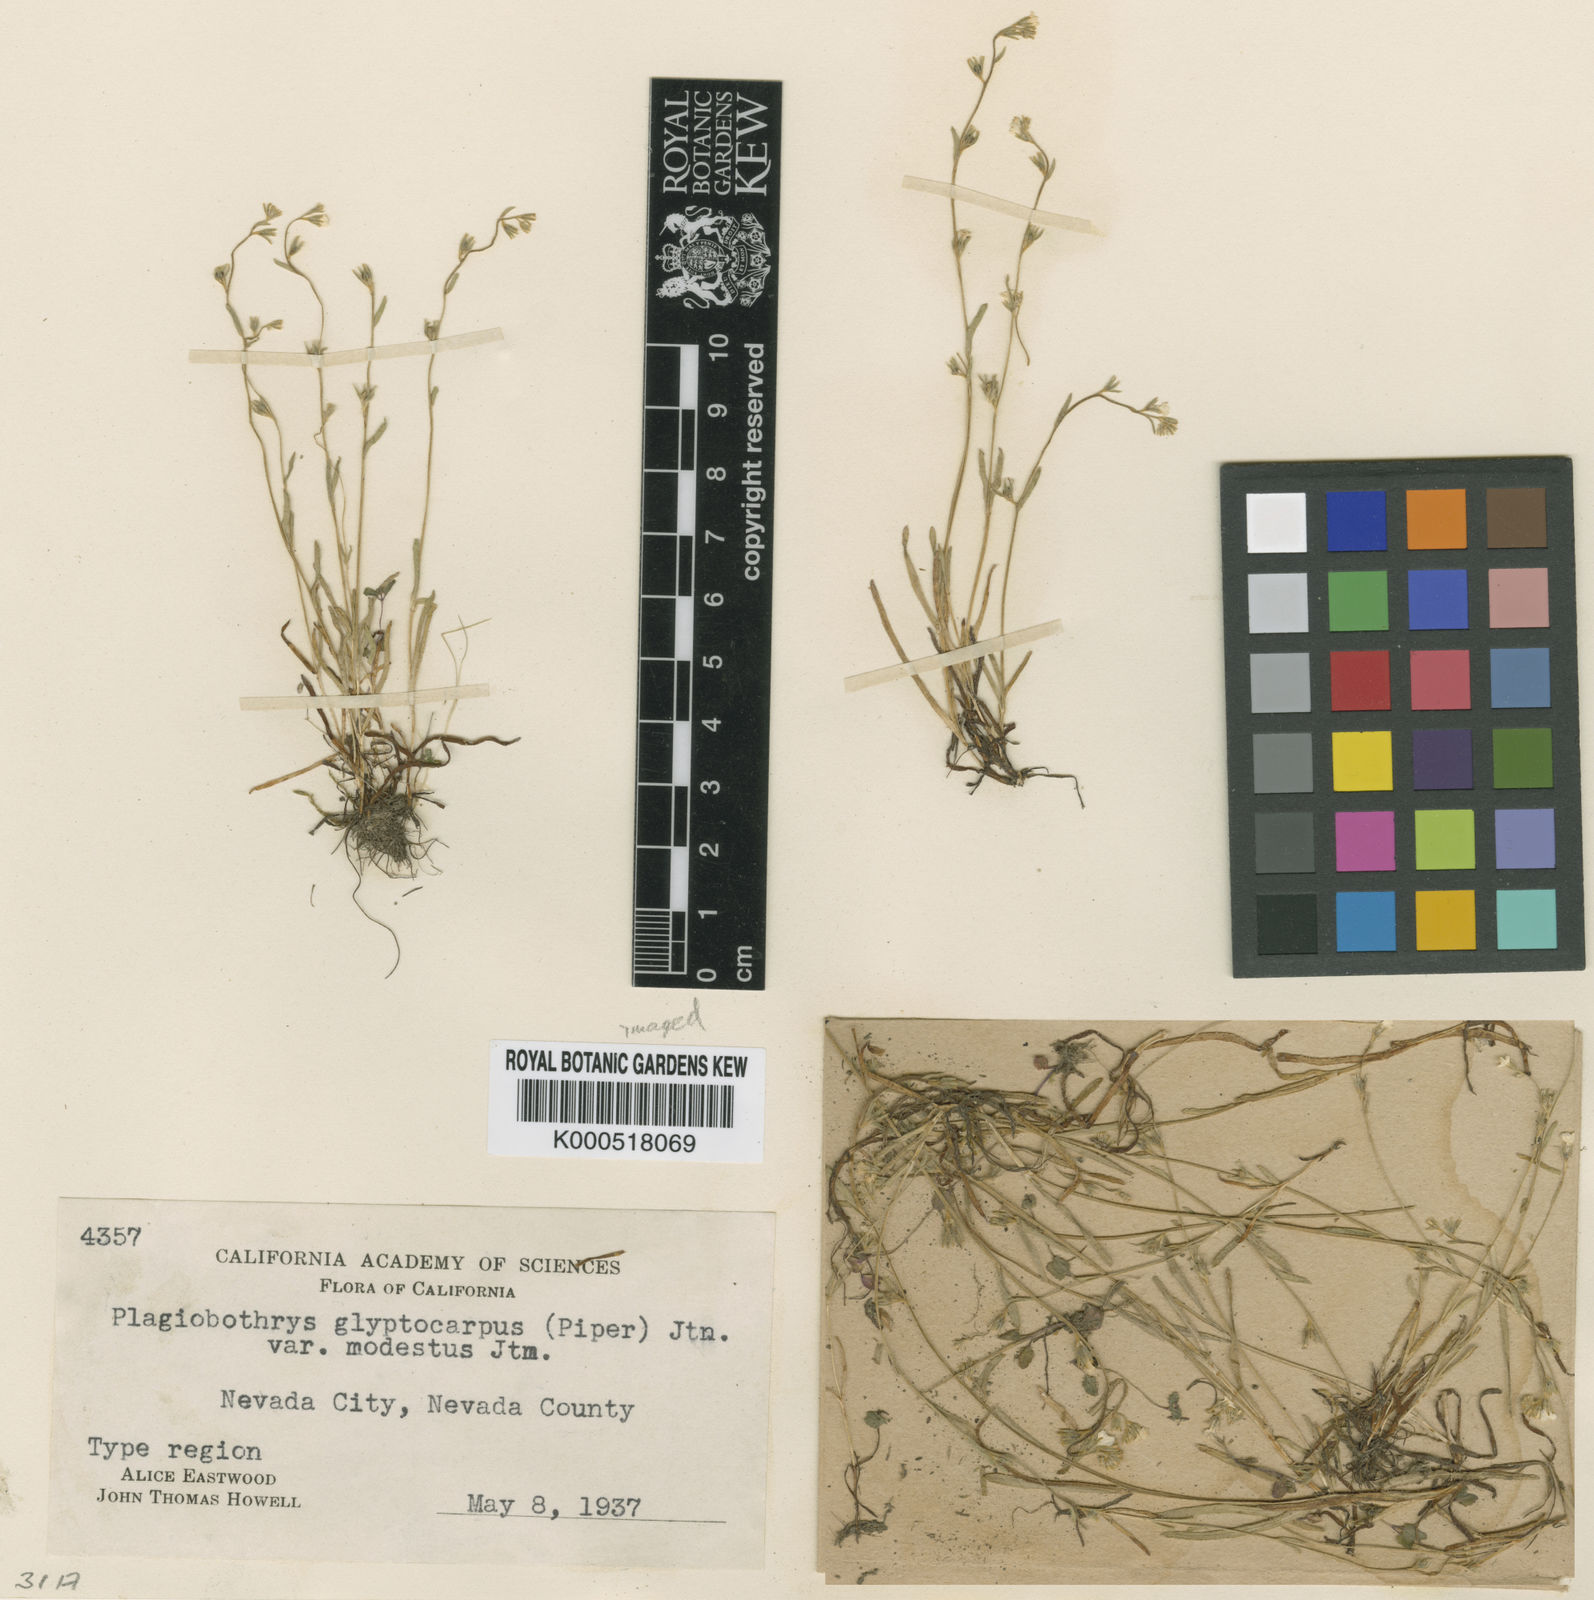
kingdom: Plantae
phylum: Tracheophyta
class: Magnoliopsida
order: Boraginales
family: Boraginaceae
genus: Plagiobothrys
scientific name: Plagiobothrys glyptocarpus
